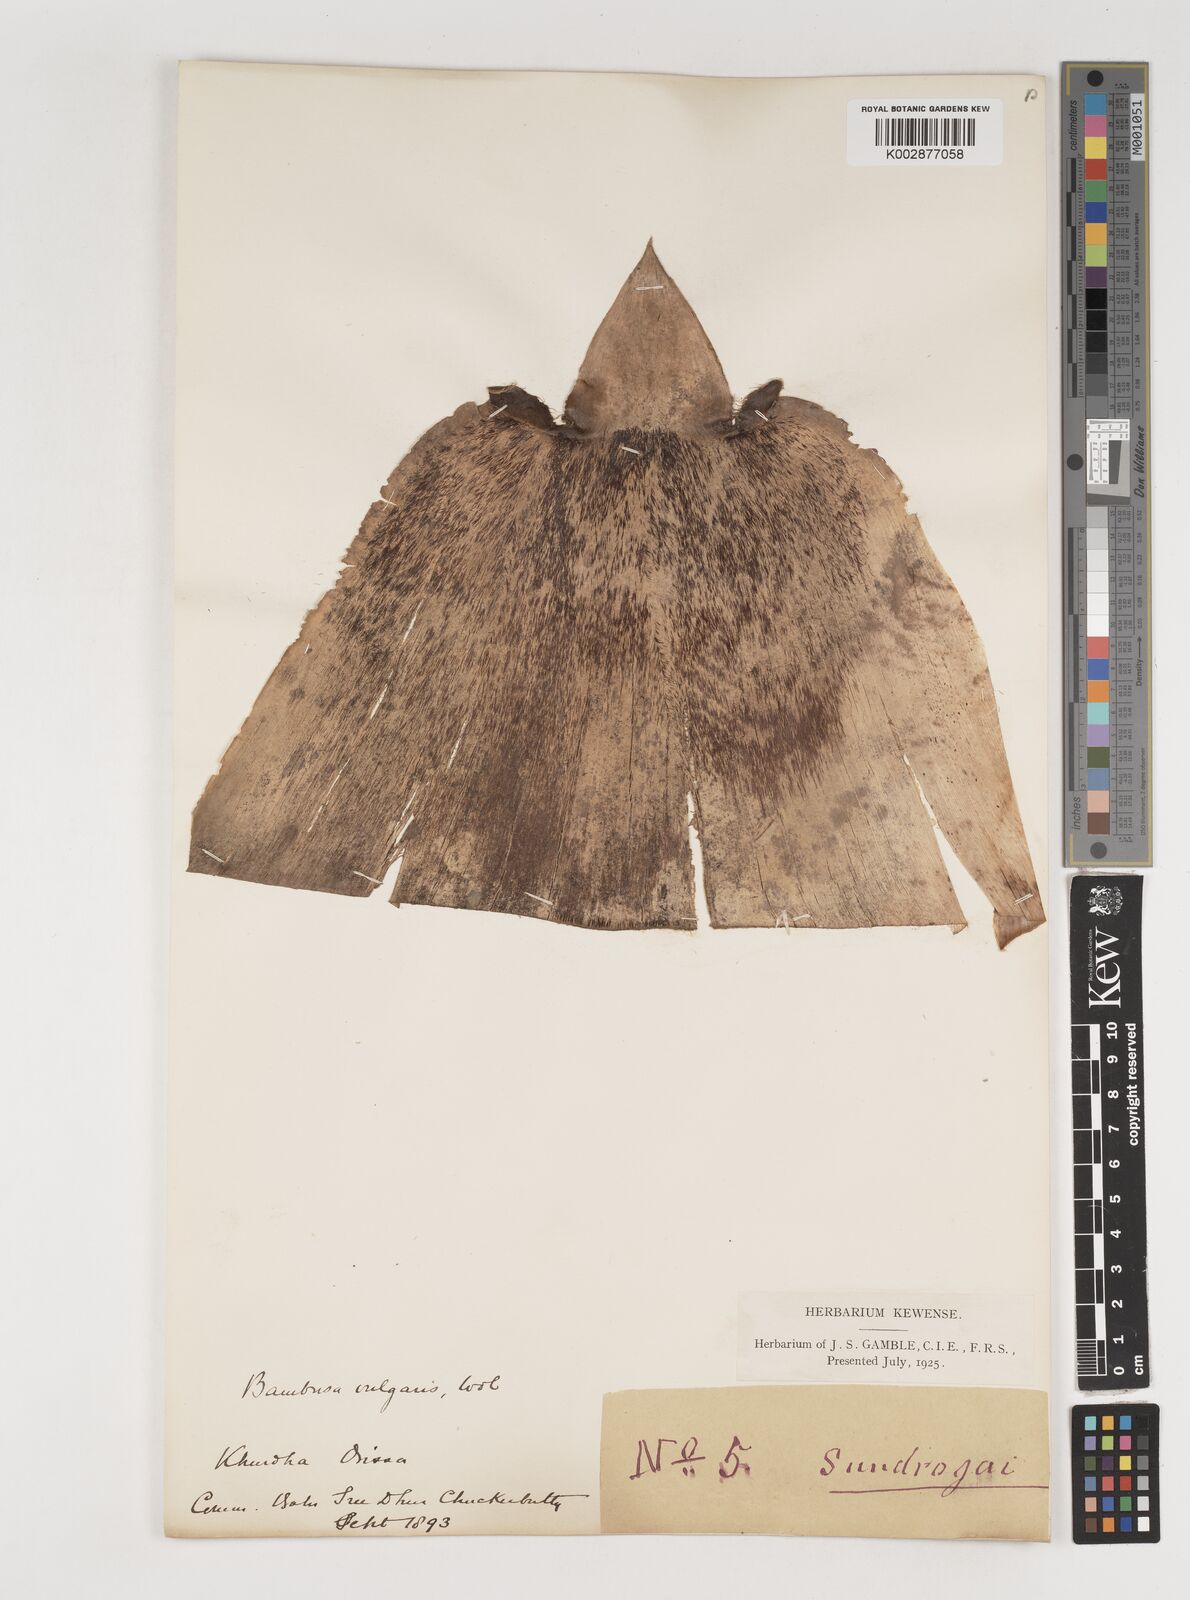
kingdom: Plantae
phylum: Tracheophyta
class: Liliopsida
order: Poales
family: Poaceae
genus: Bambusa
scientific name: Bambusa vulgaris
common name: Common bamboo
